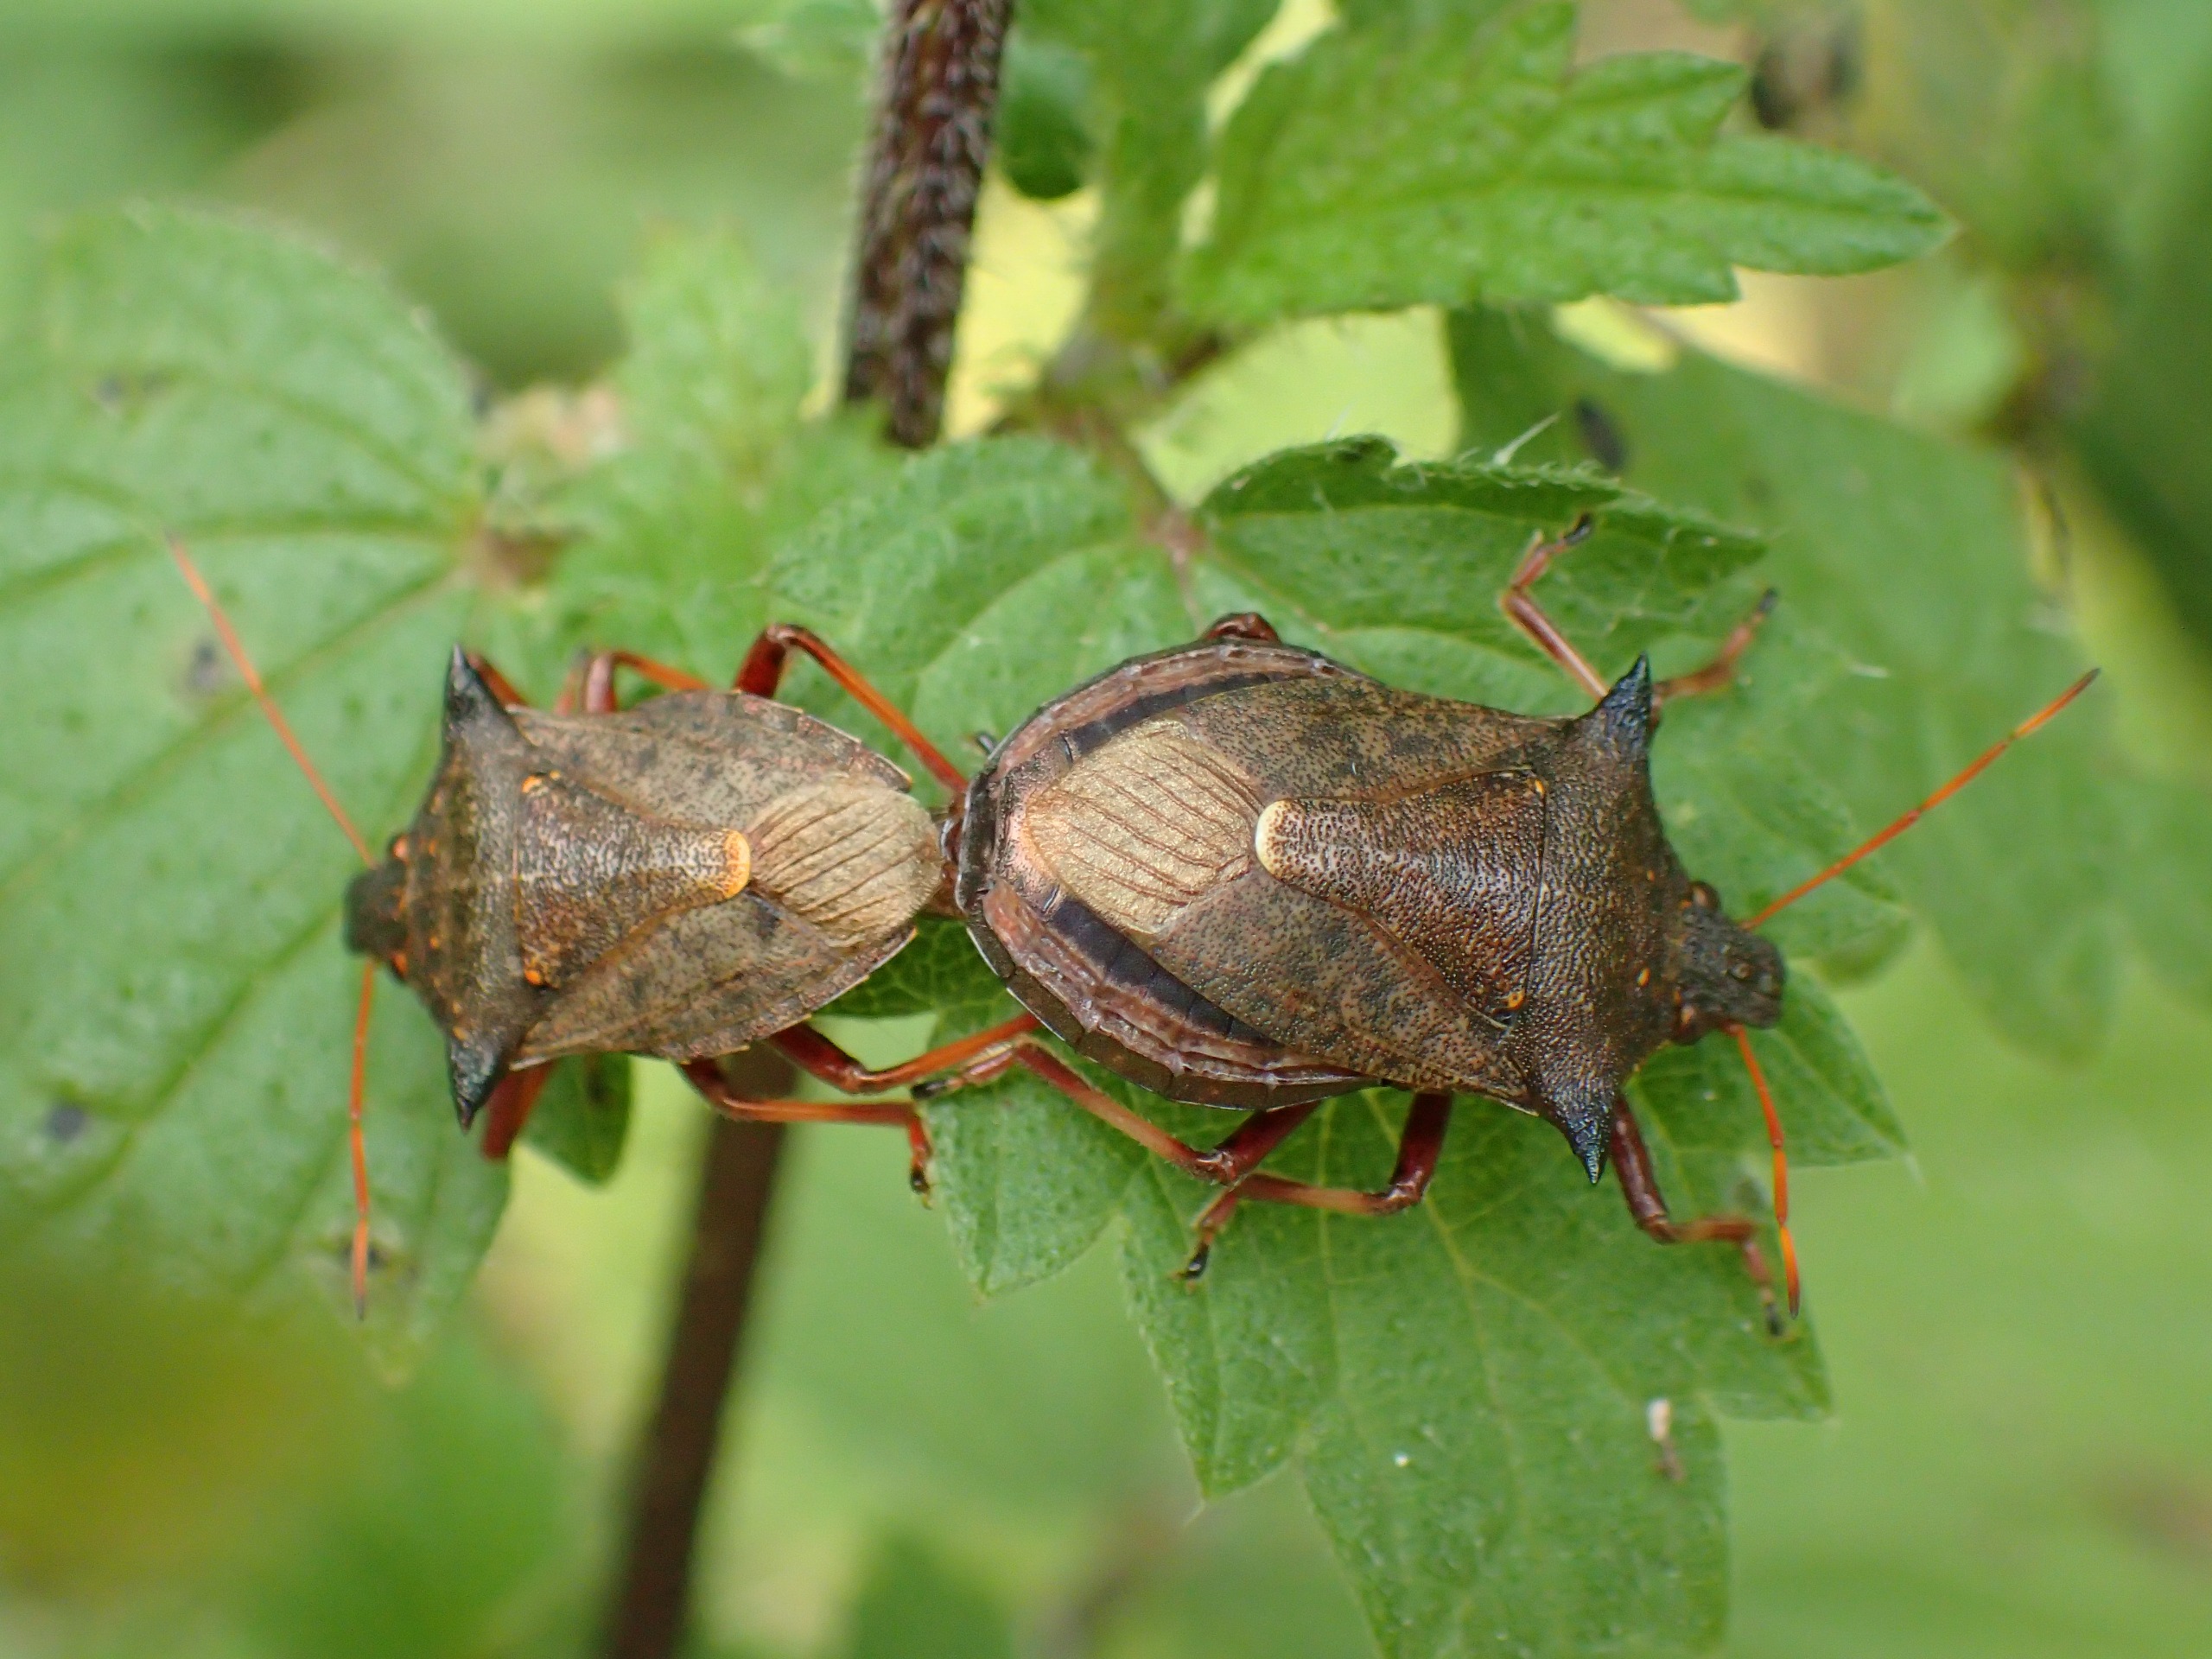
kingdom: Animalia
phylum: Arthropoda
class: Insecta
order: Hemiptera
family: Pentatomidae
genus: Picromerus
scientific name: Picromerus bidens
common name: Torntæge
